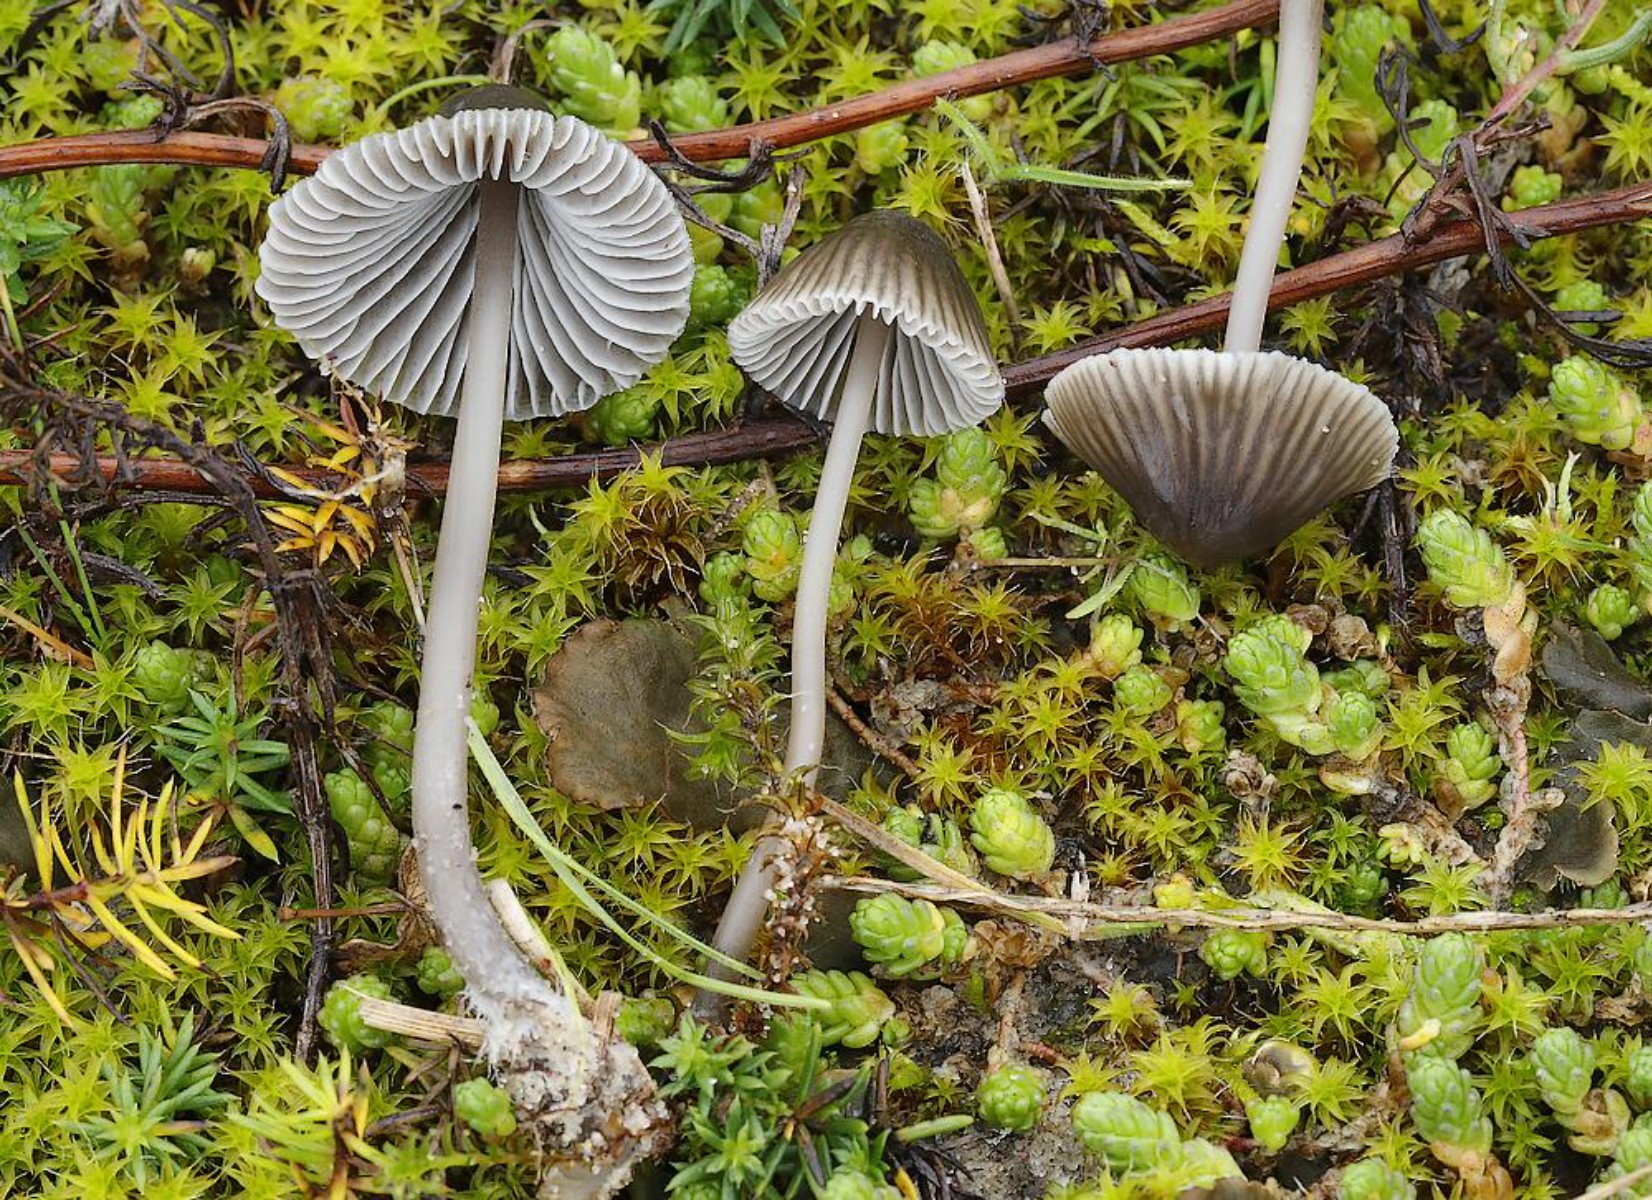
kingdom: Fungi
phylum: Basidiomycota
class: Agaricomycetes
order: Agaricales
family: Mycenaceae
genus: Mycena
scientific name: Mycena
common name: huesvamp
